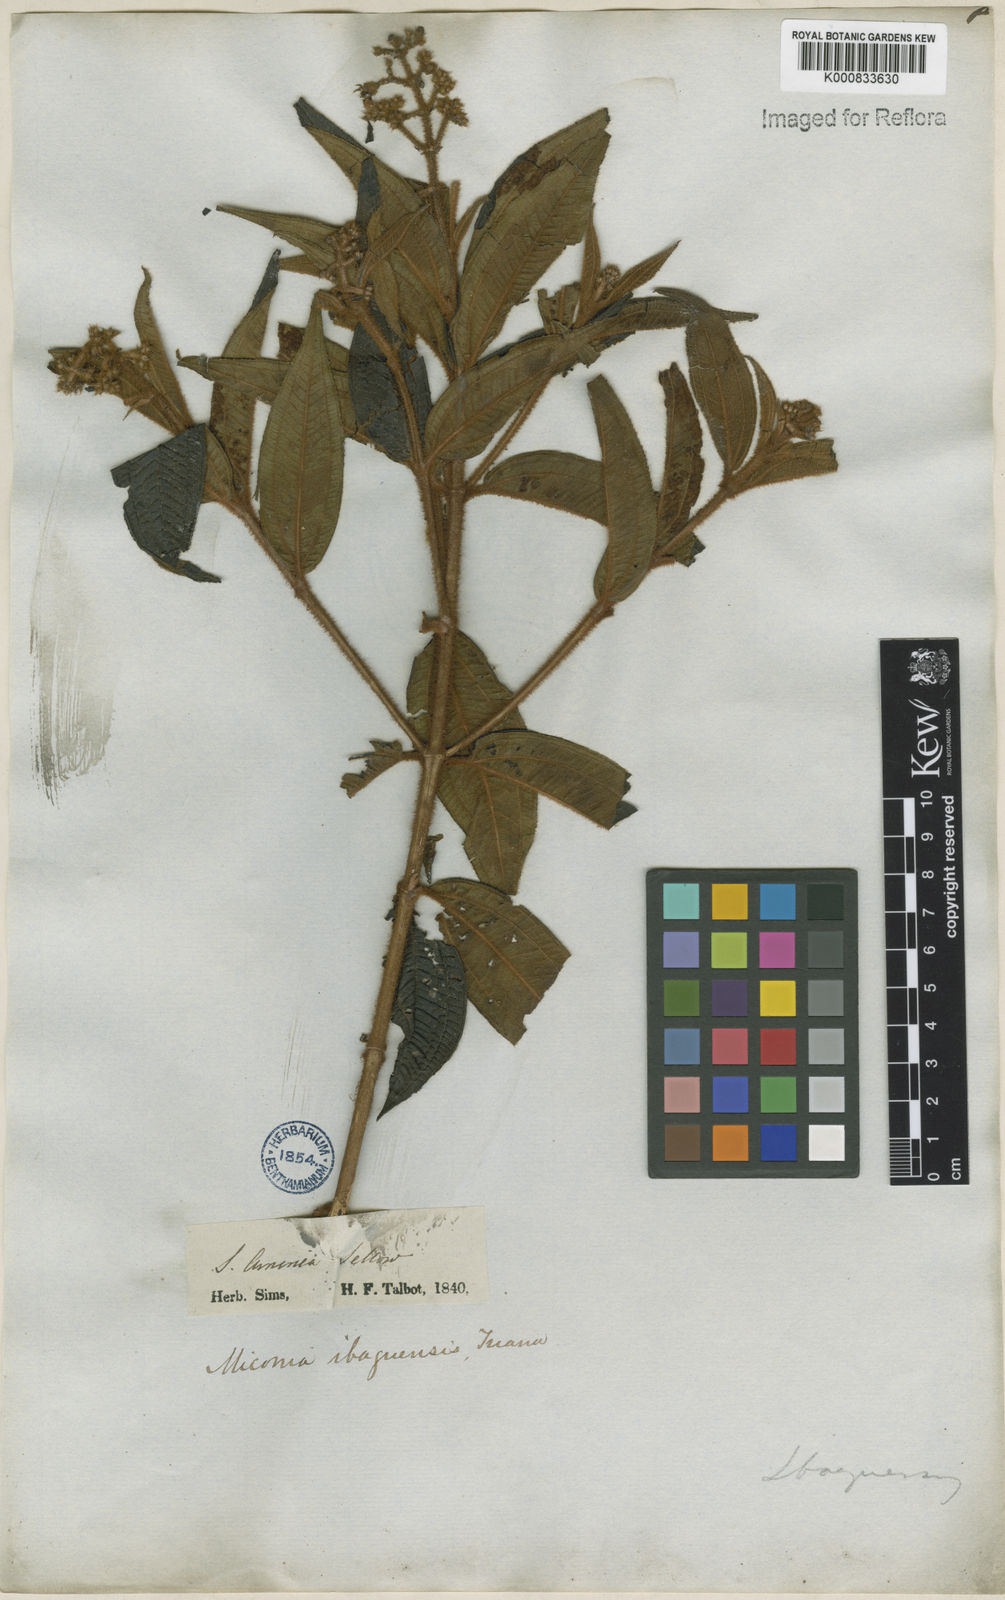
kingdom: Plantae
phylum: Tracheophyta
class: Magnoliopsida
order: Myrtales
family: Melastomataceae
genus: Miconia
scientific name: Miconia ibaguensis
